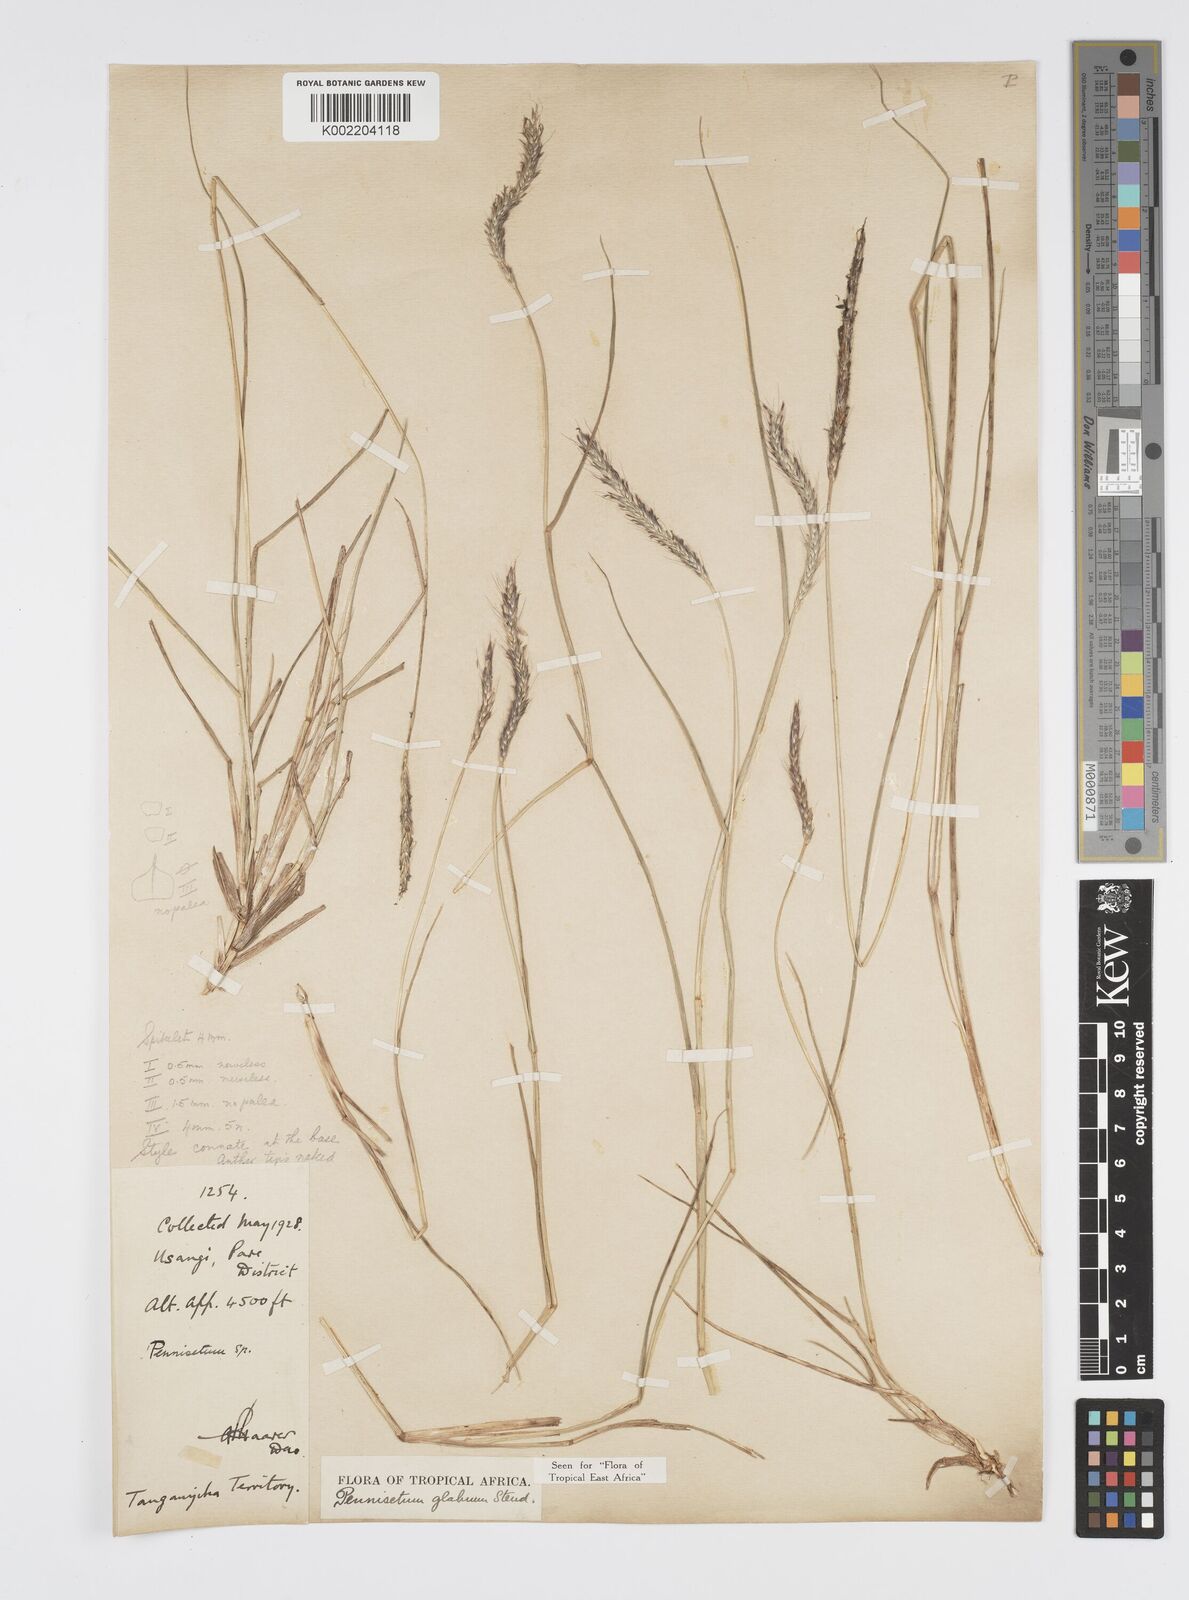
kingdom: Plantae
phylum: Tracheophyta
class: Liliopsida
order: Poales
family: Poaceae
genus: Cenchrus
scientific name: Cenchrus geniculatus
